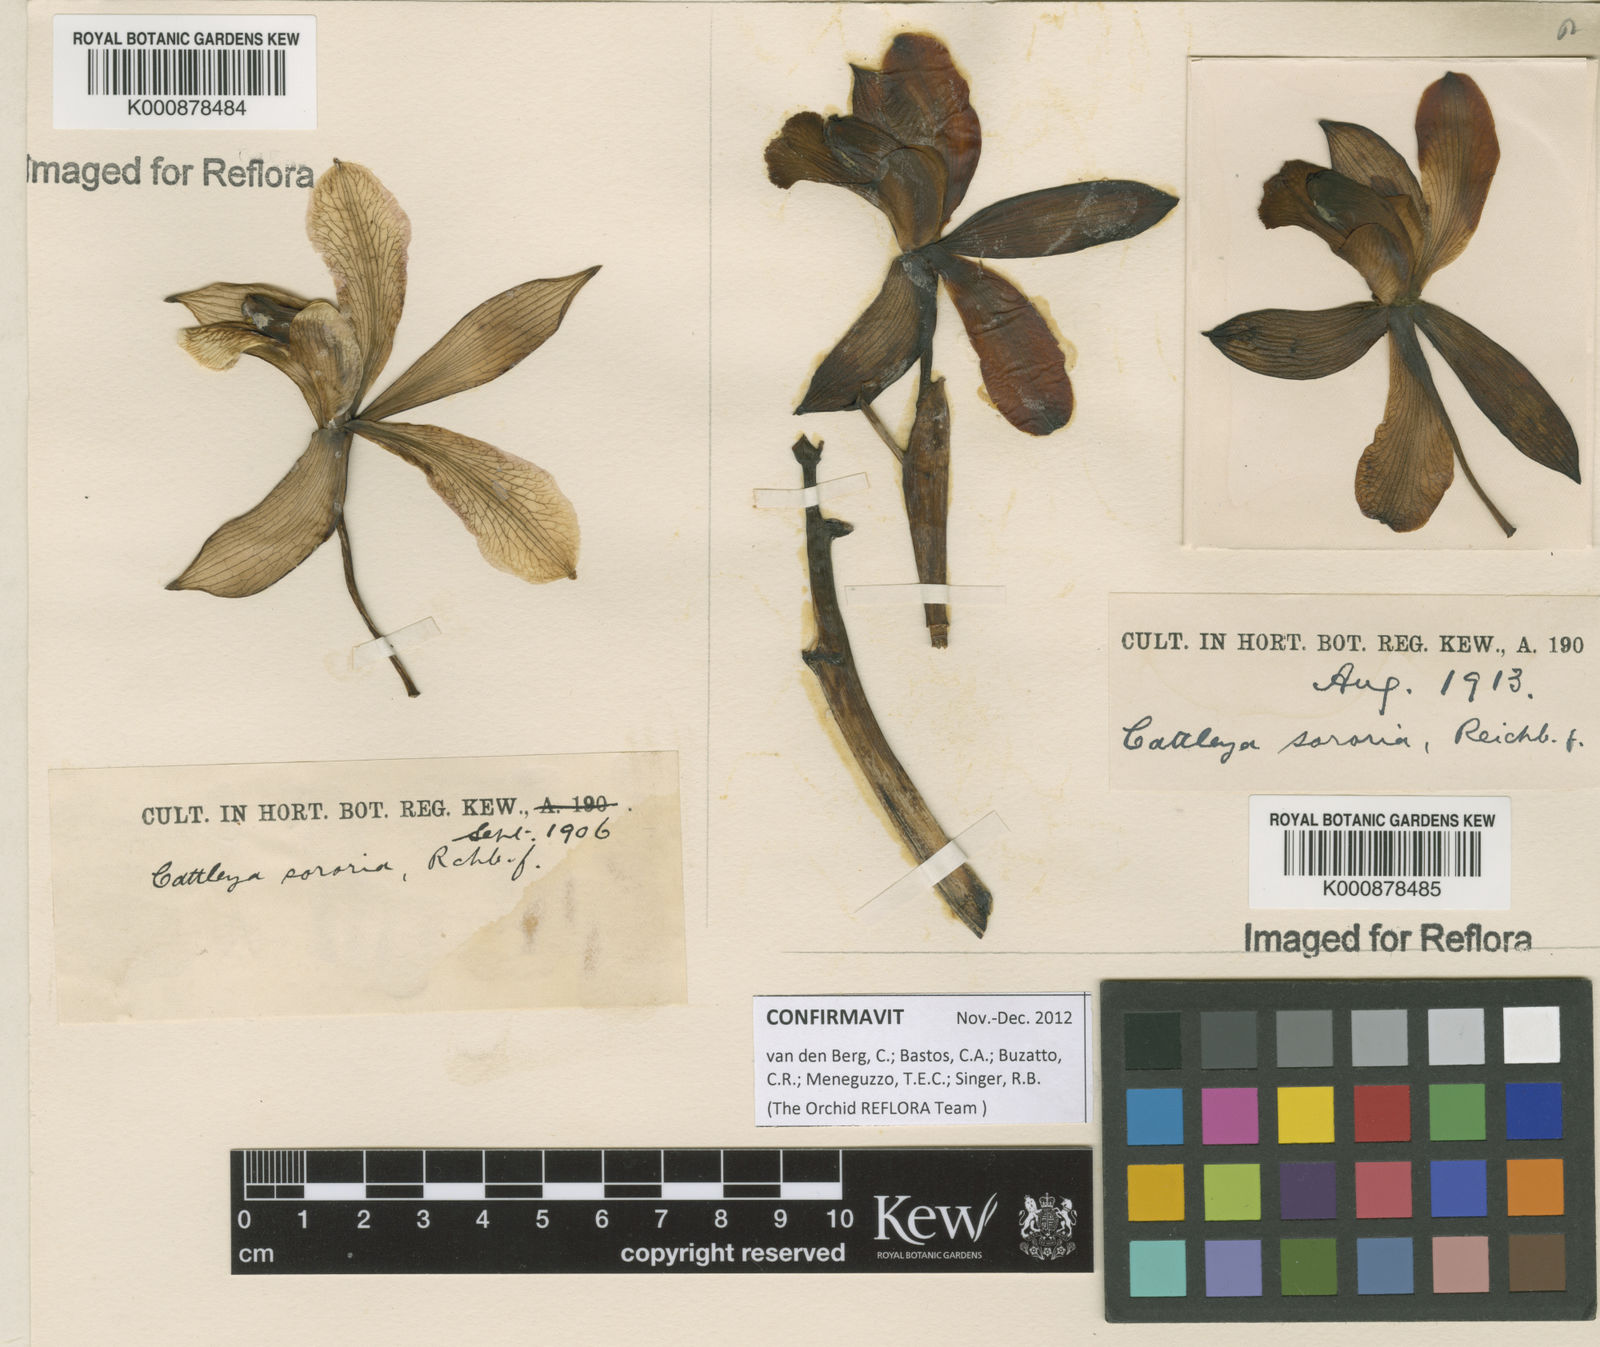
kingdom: Plantae
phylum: Tracheophyta
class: Liliopsida
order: Asparagales
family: Orchidaceae
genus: Cattleya
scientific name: Cattleya sororia
